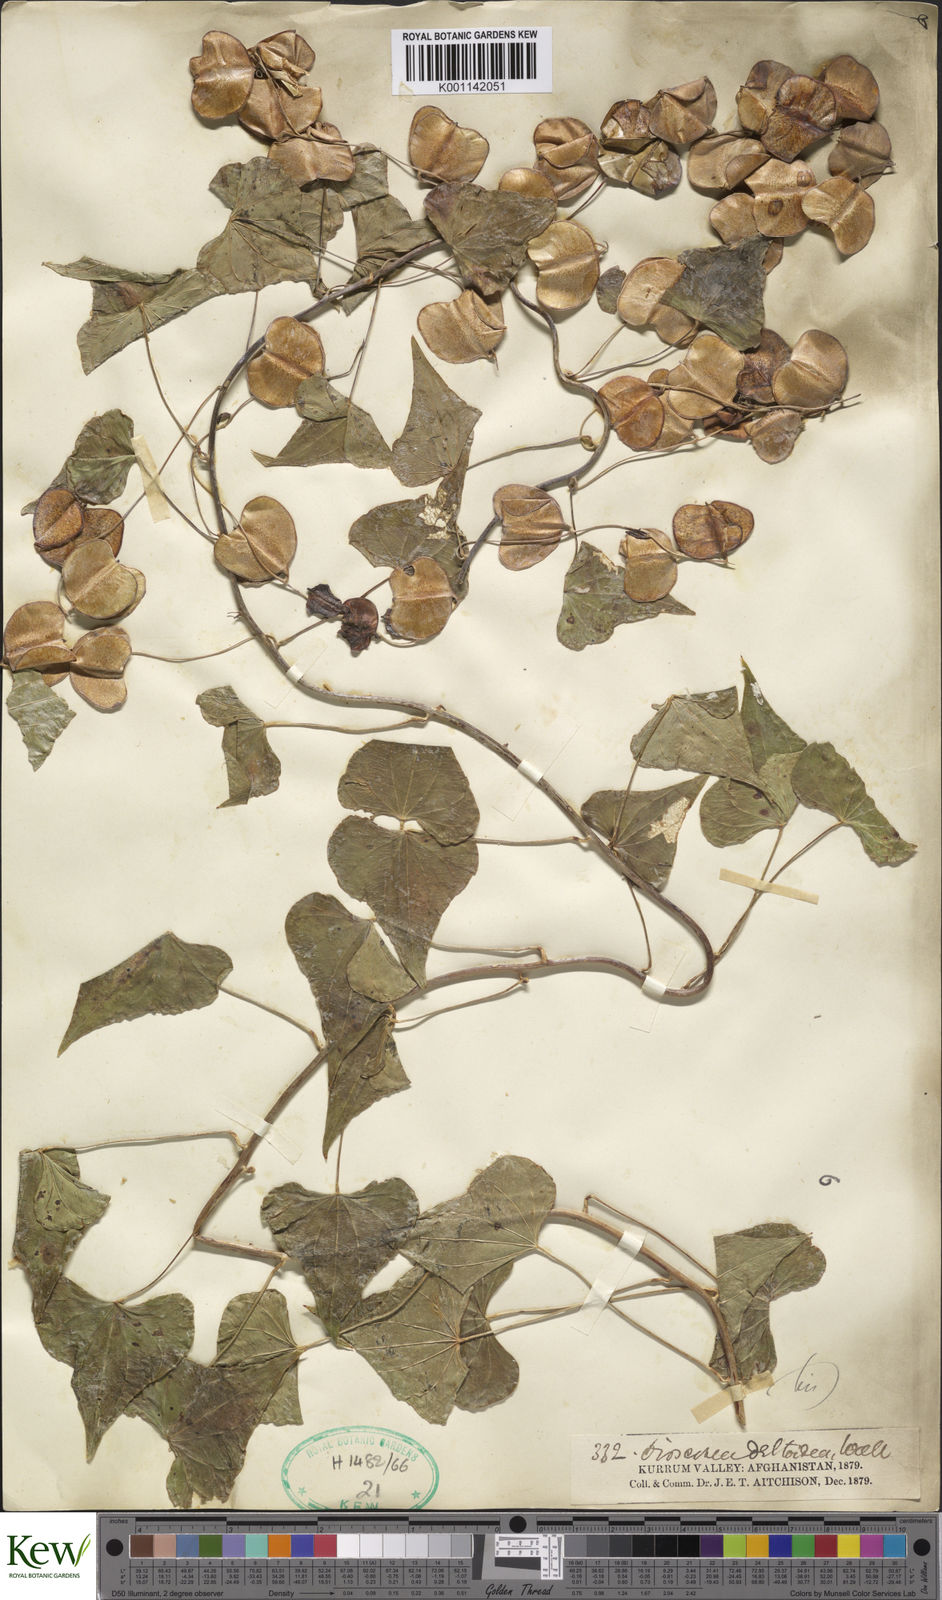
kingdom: Plantae
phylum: Tracheophyta
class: Liliopsida
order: Dioscoreales
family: Dioscoreaceae
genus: Dioscorea
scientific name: Dioscorea deltoidea
